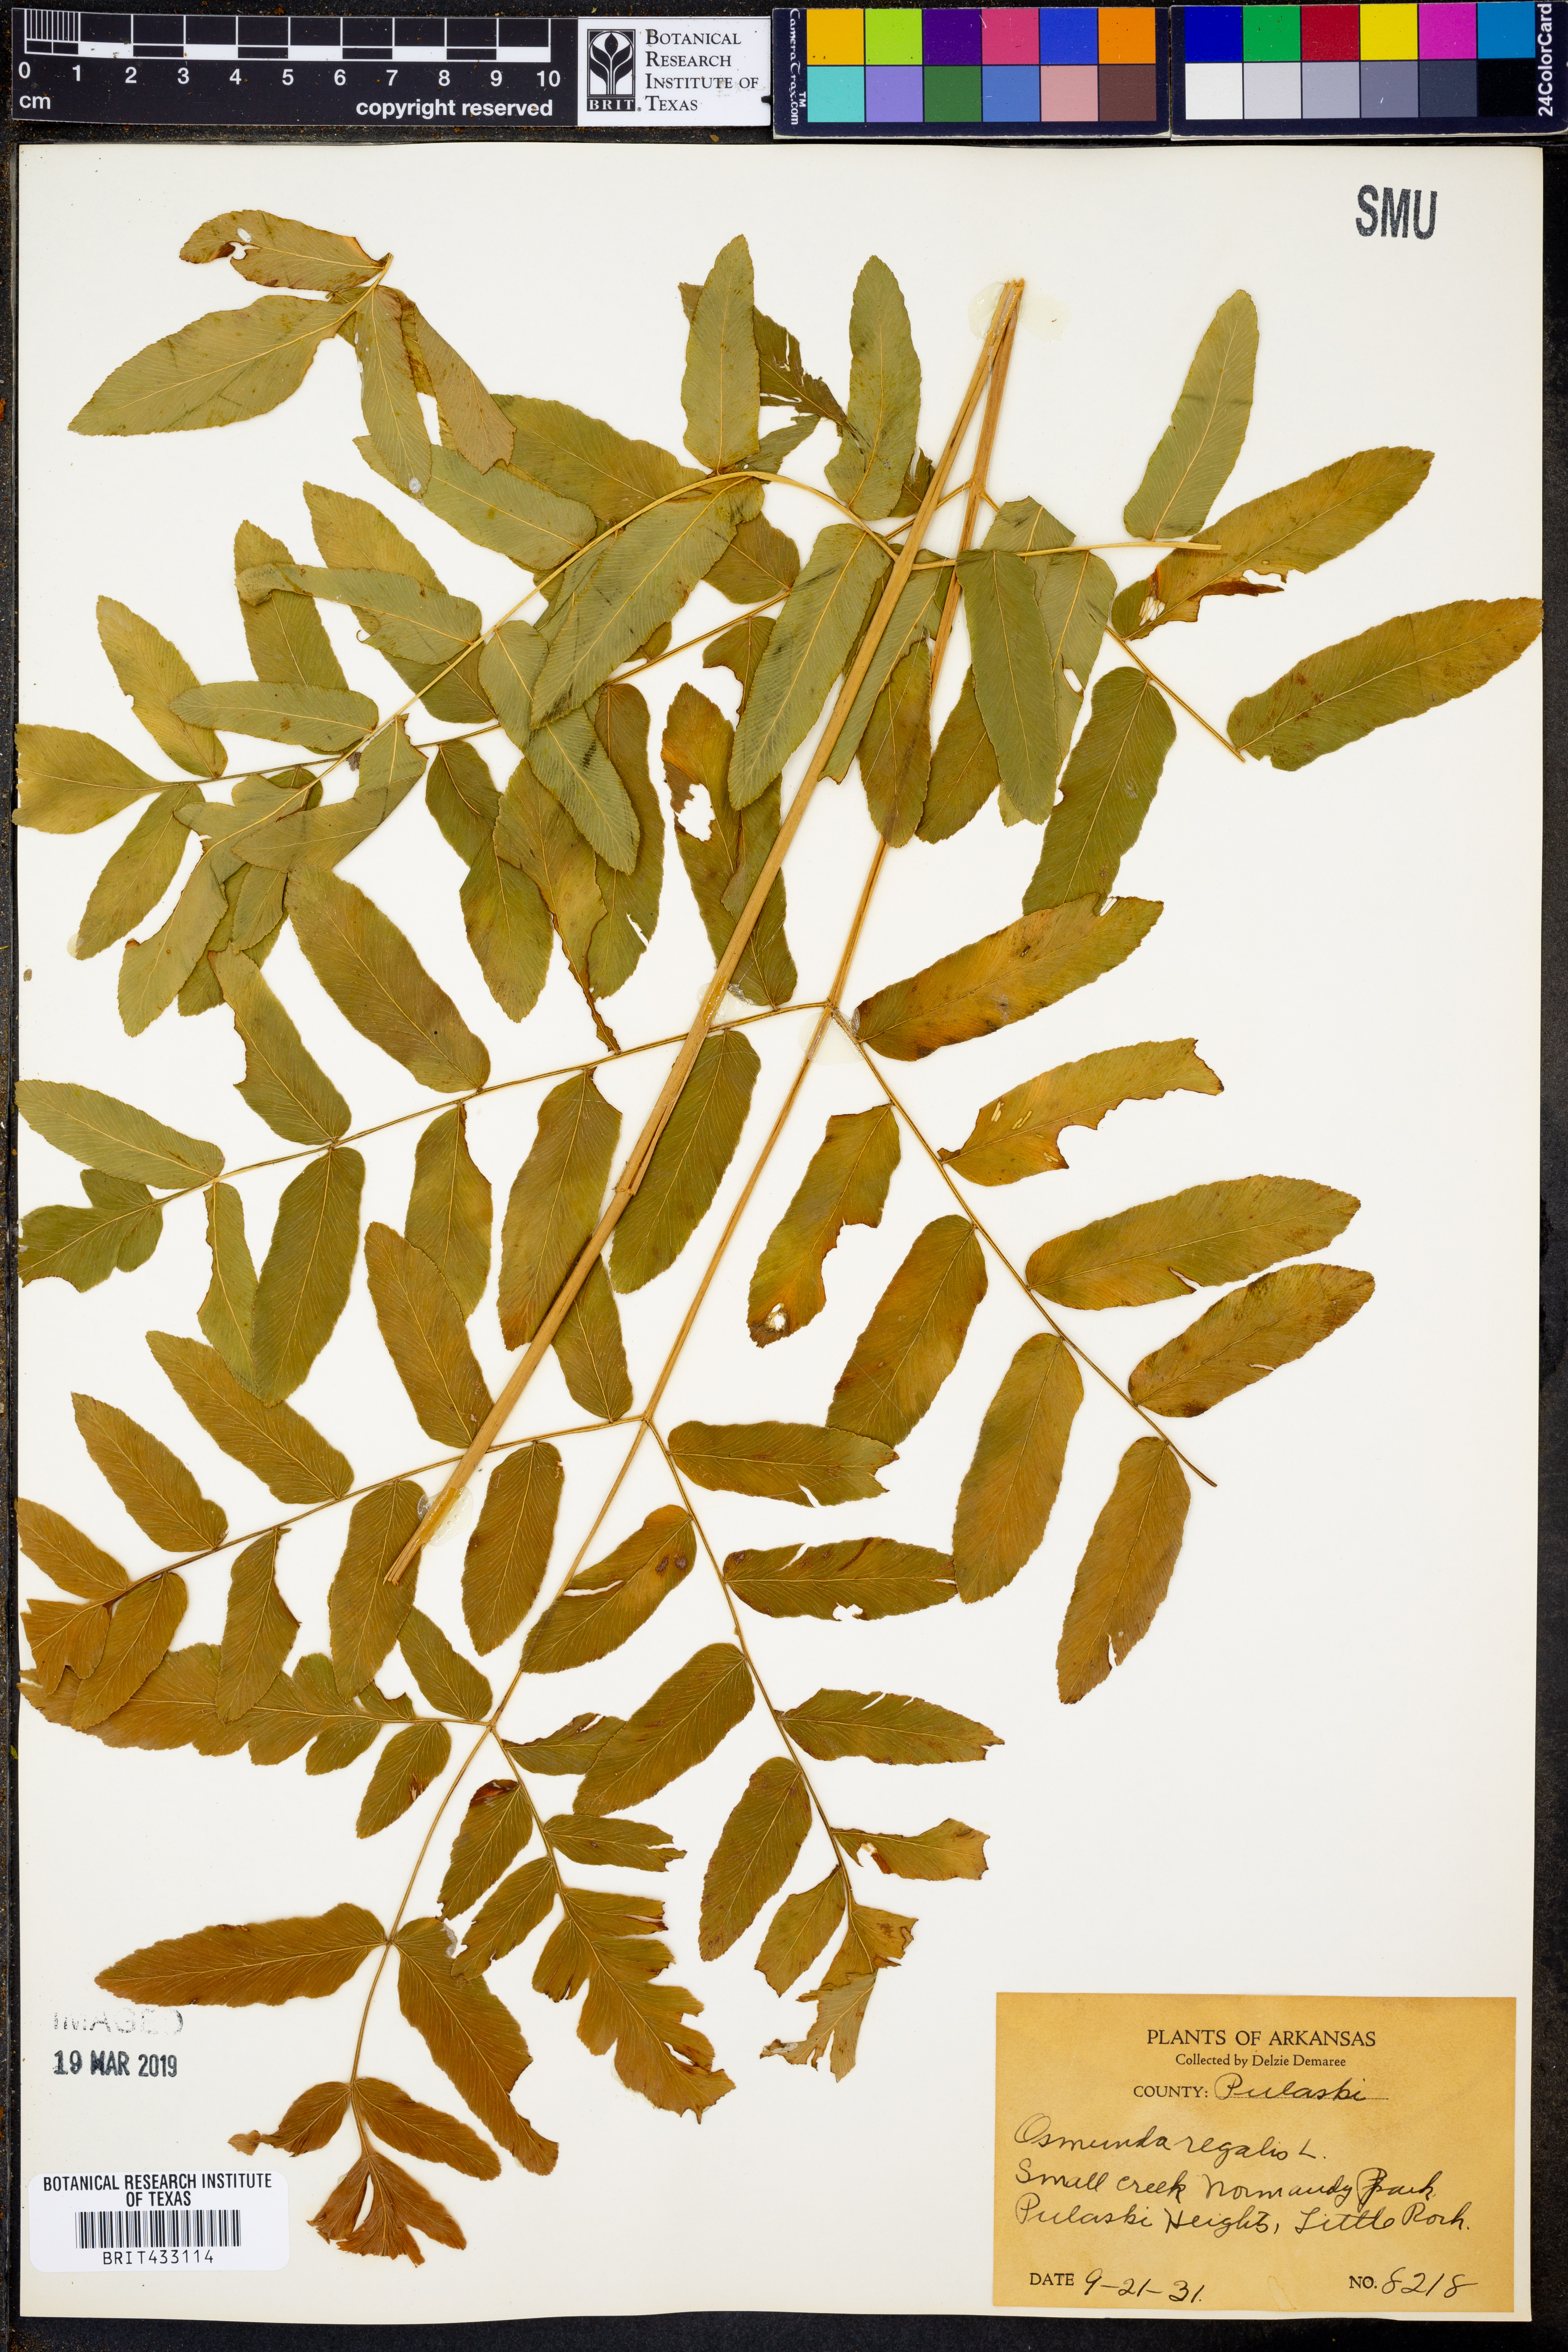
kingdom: Plantae
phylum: Tracheophyta
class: Polypodiopsida
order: Osmundales
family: Osmundaceae
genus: Osmunda
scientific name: Osmunda regalis
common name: Royal fern
